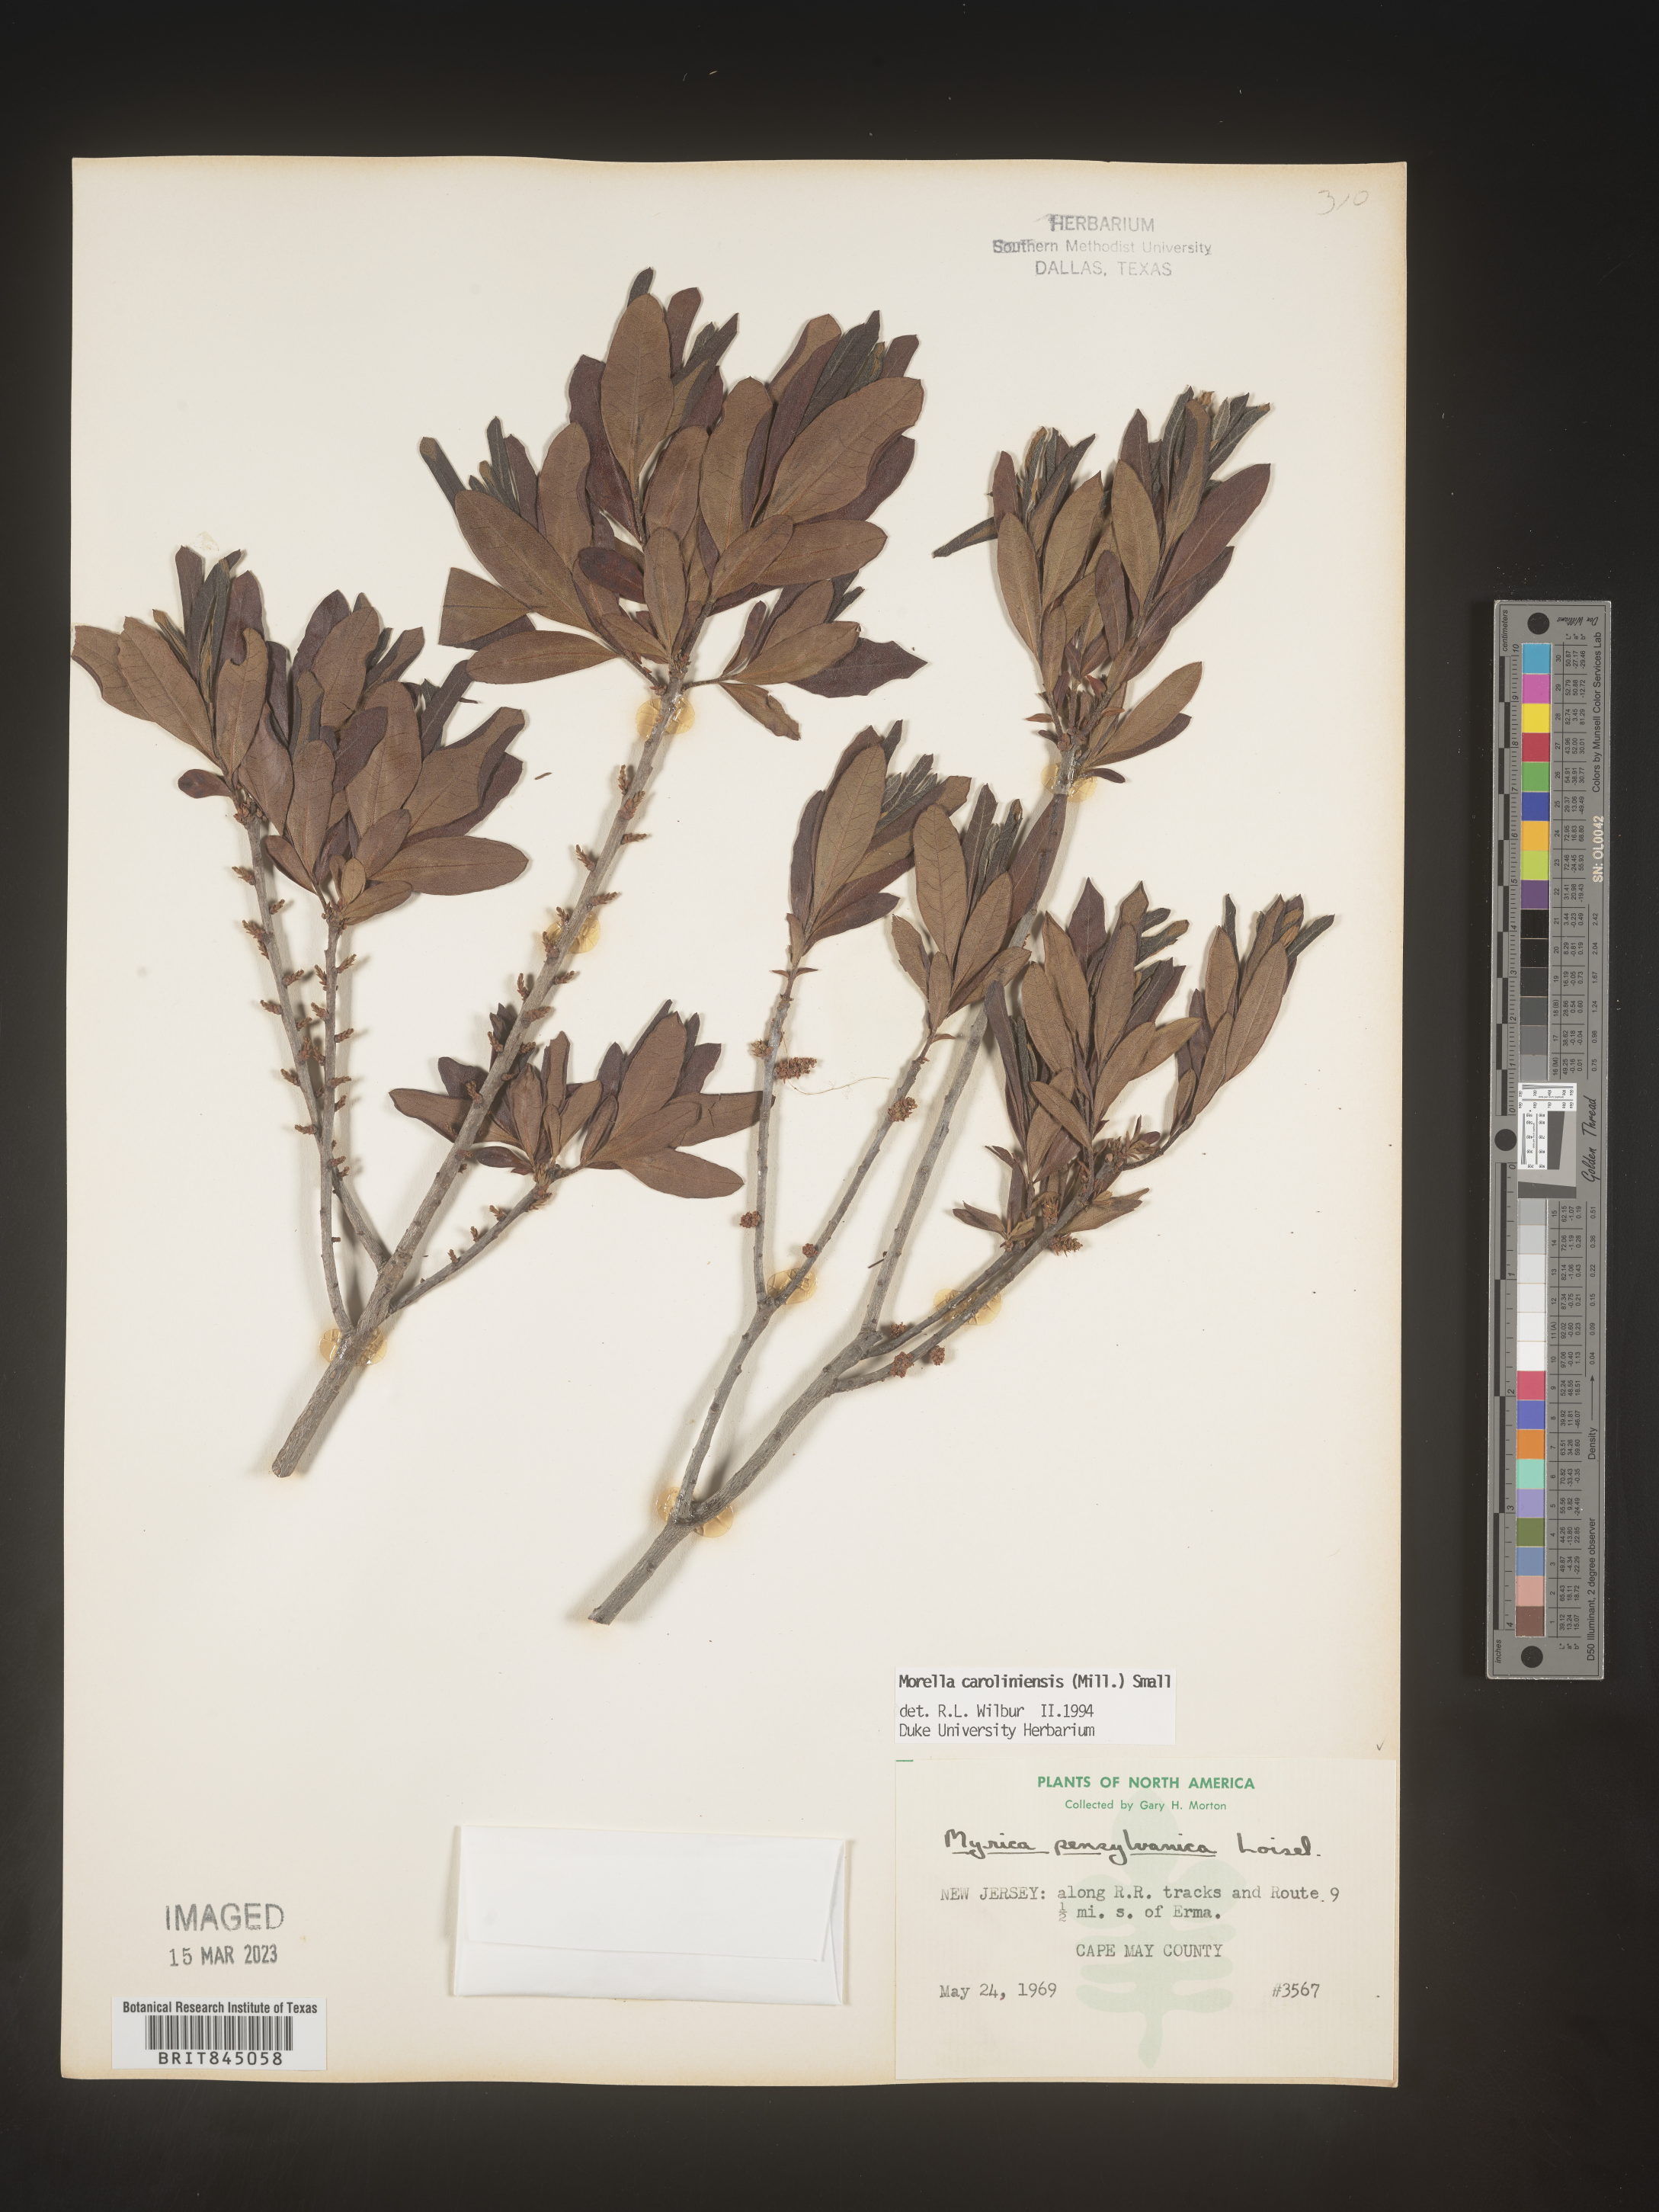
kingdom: Plantae
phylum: Tracheophyta
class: Magnoliopsida
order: Fagales
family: Myricaceae
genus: Morella
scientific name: Morella caroliniensis
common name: Evergreen bayberry
